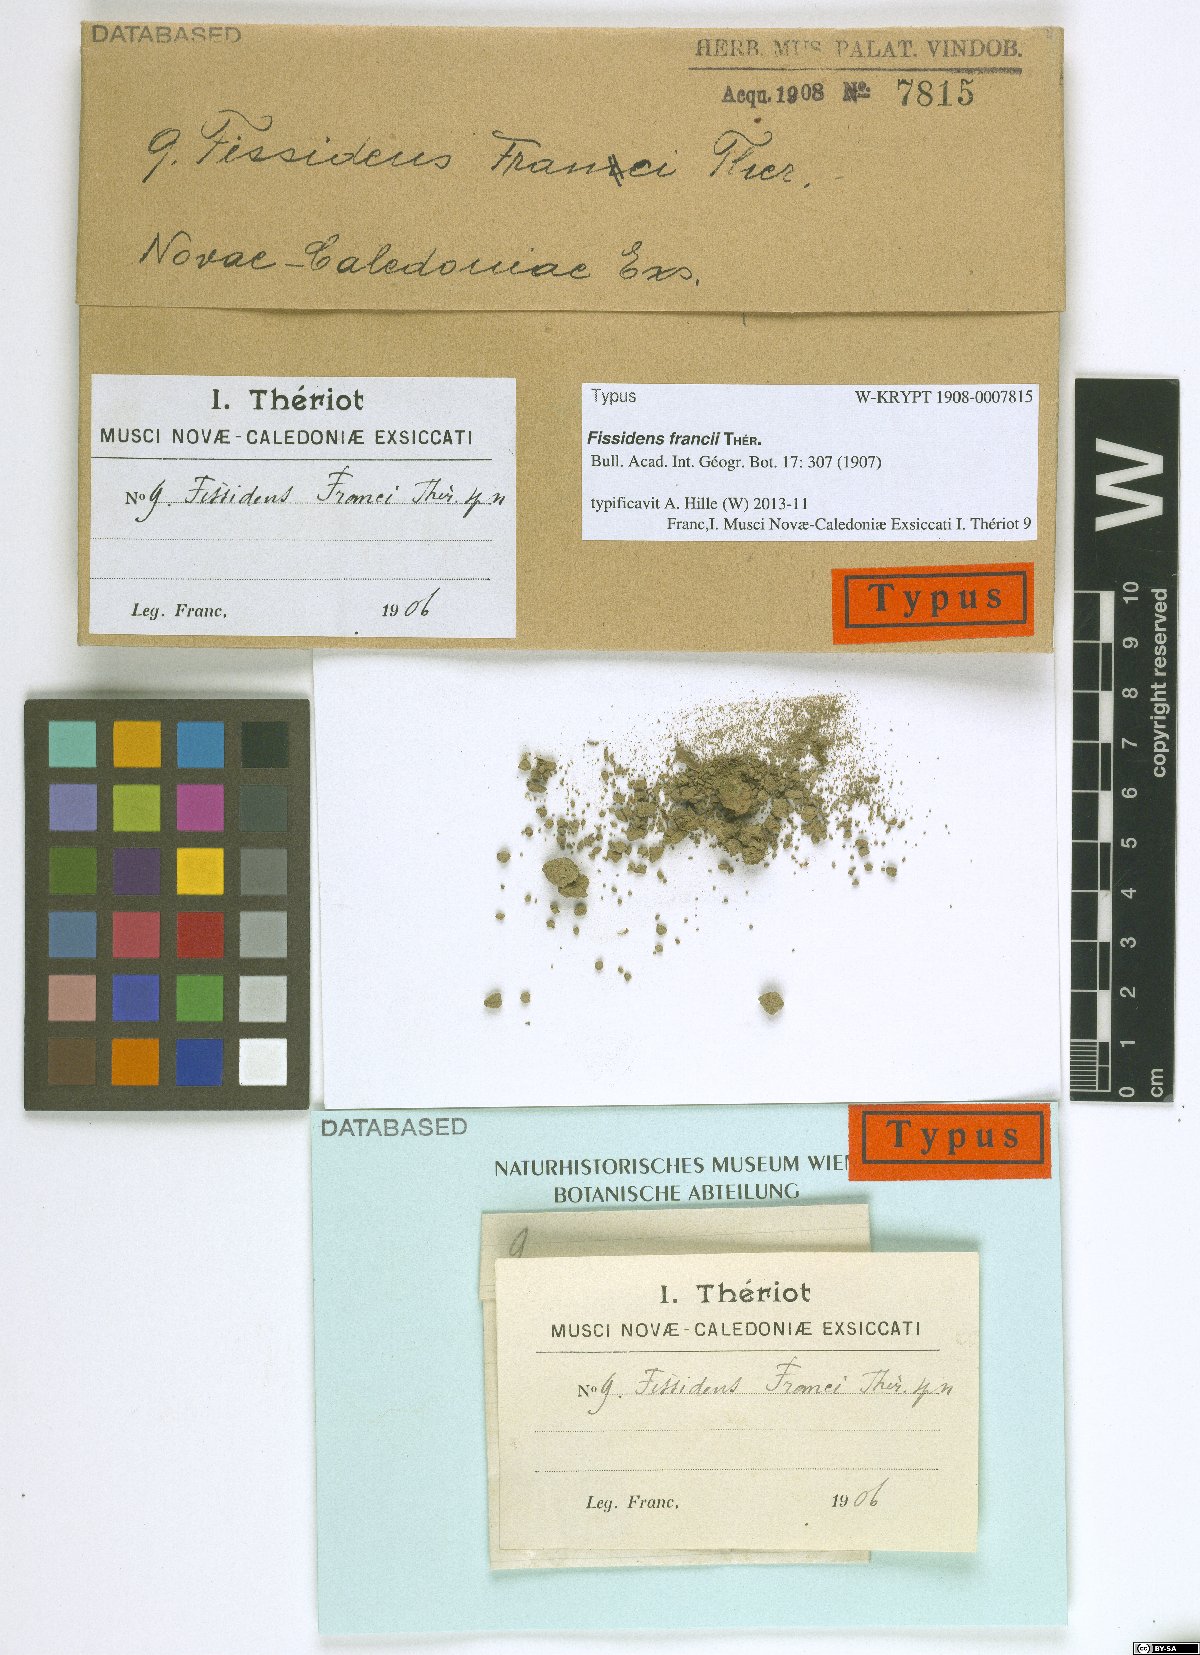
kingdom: Plantae
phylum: Bryophyta
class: Bryopsida
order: Dicranales
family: Fissidentaceae
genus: Fissidens
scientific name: Fissidens curvatus
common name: Milo's fissidens moss
